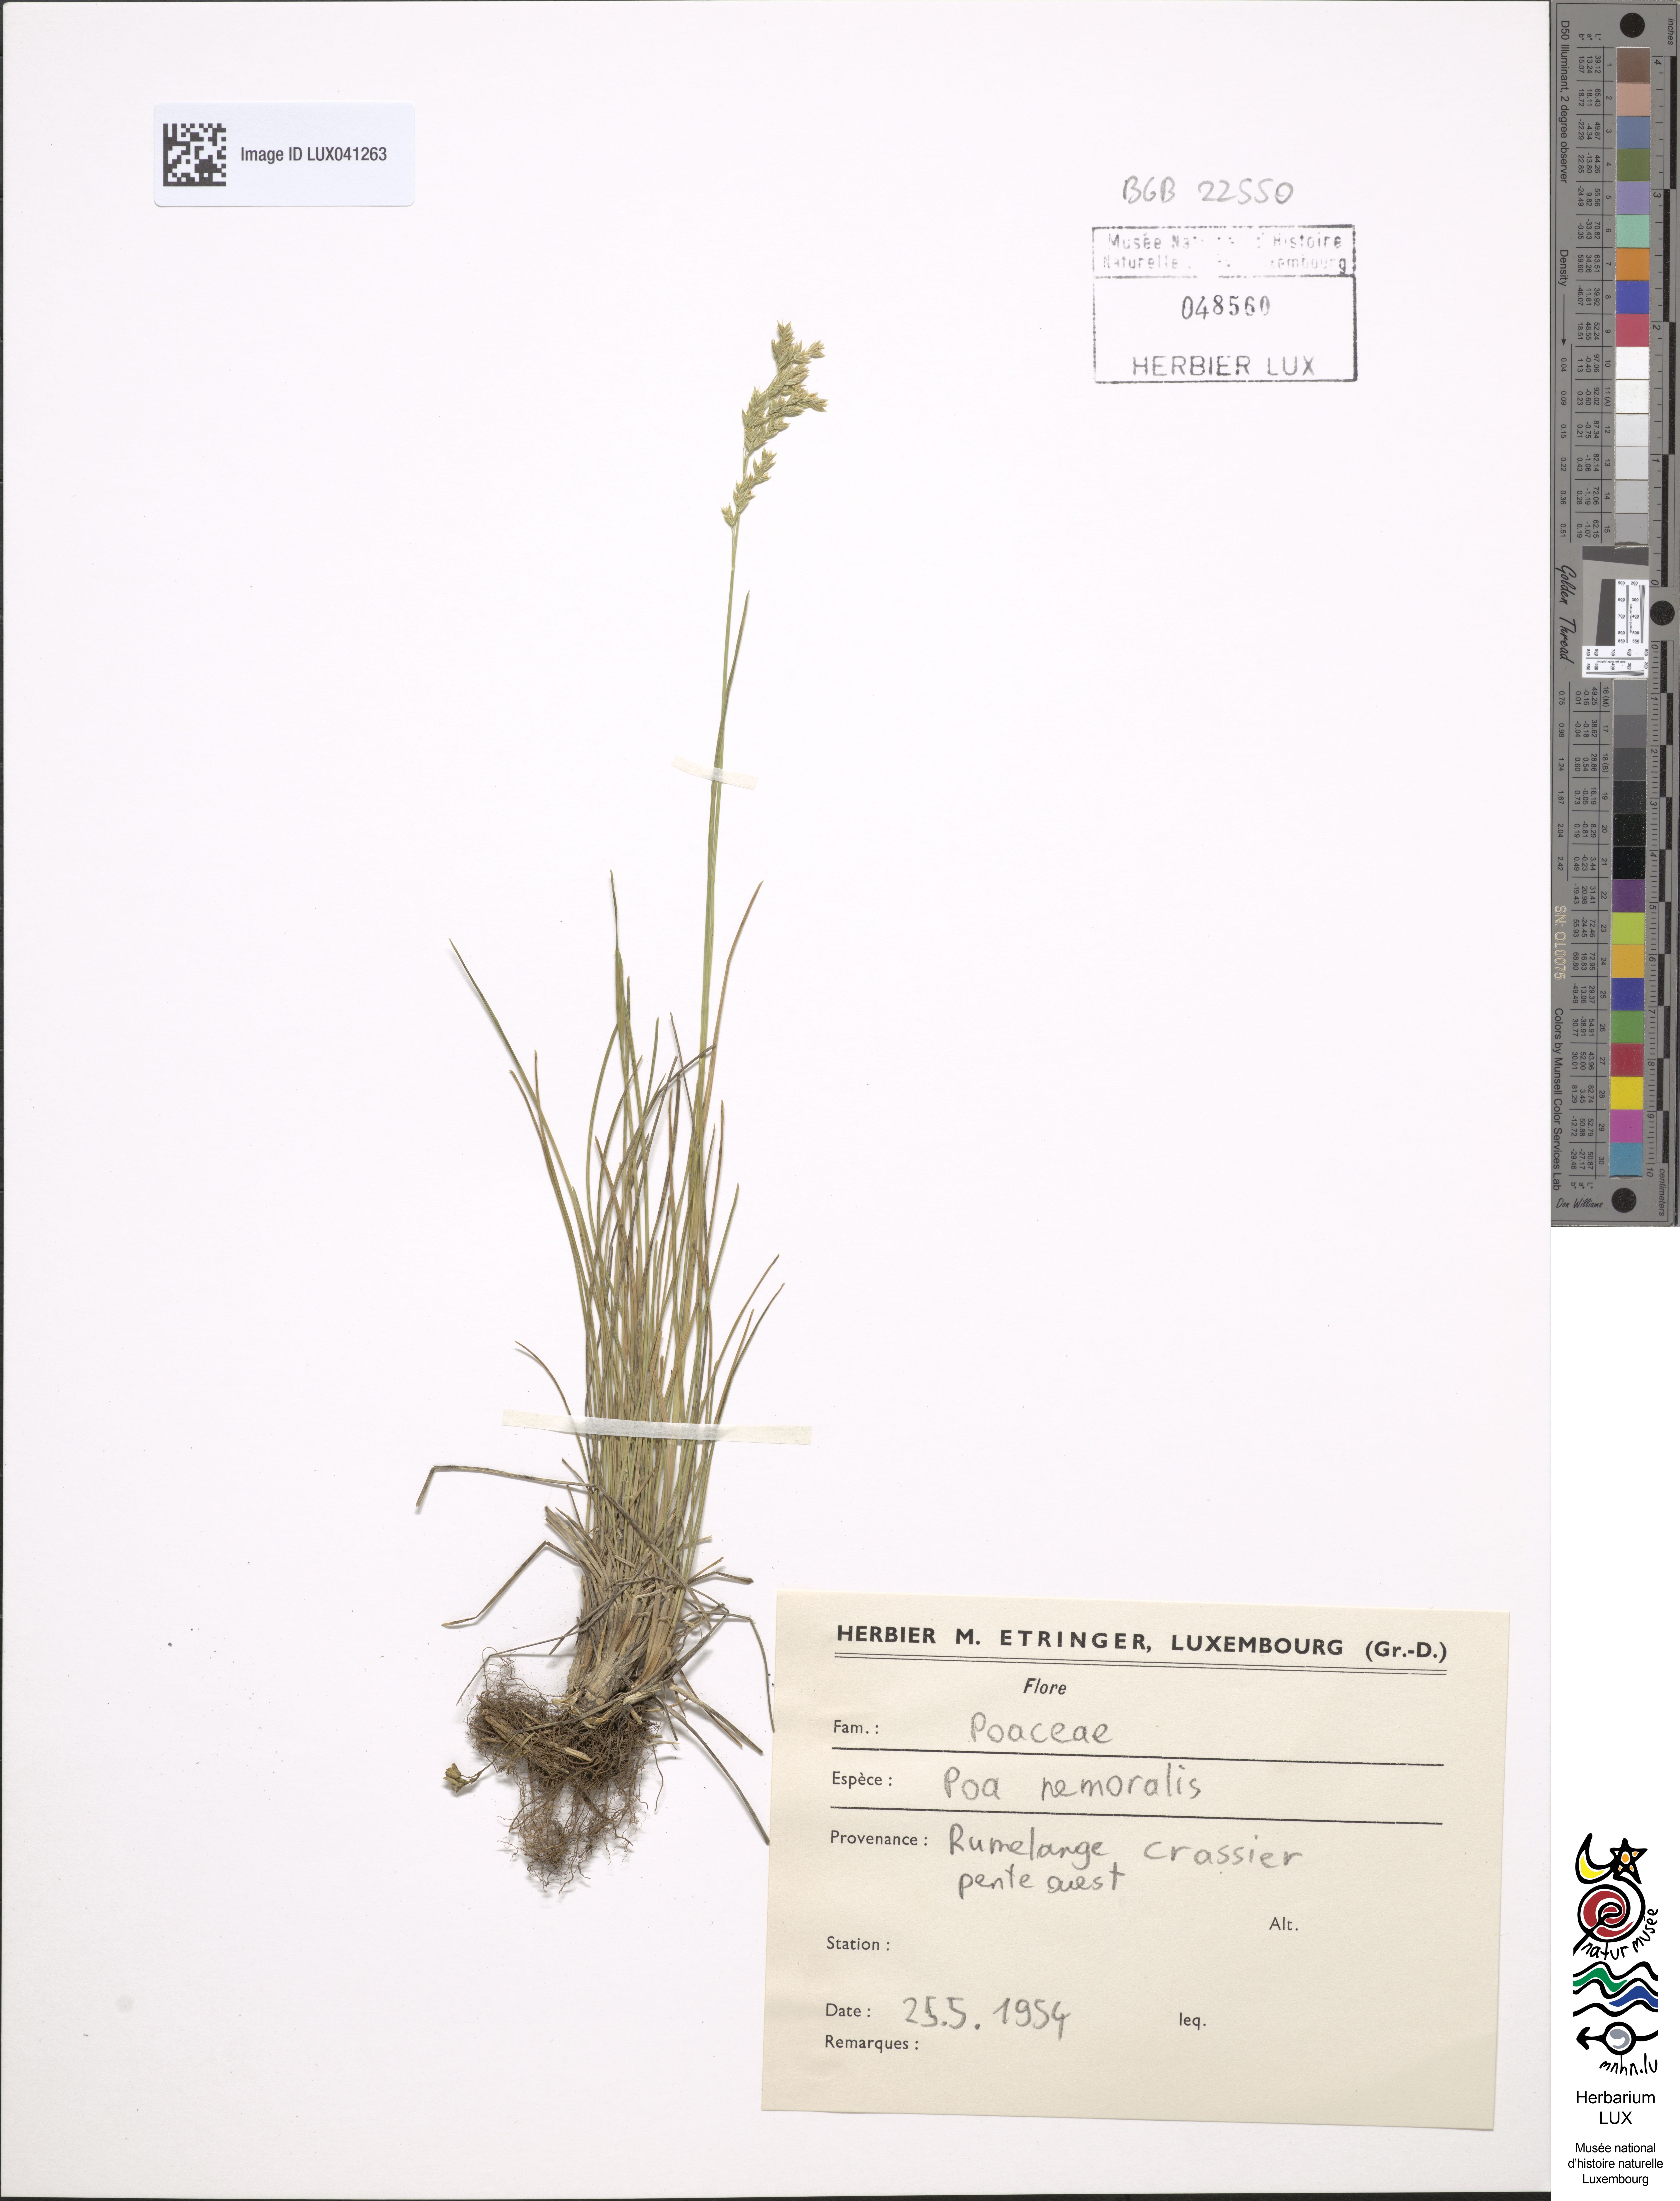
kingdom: Plantae
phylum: Tracheophyta
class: Liliopsida
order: Poales
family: Poaceae
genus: Poa
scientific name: Poa nemoralis
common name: Wood bluegrass
